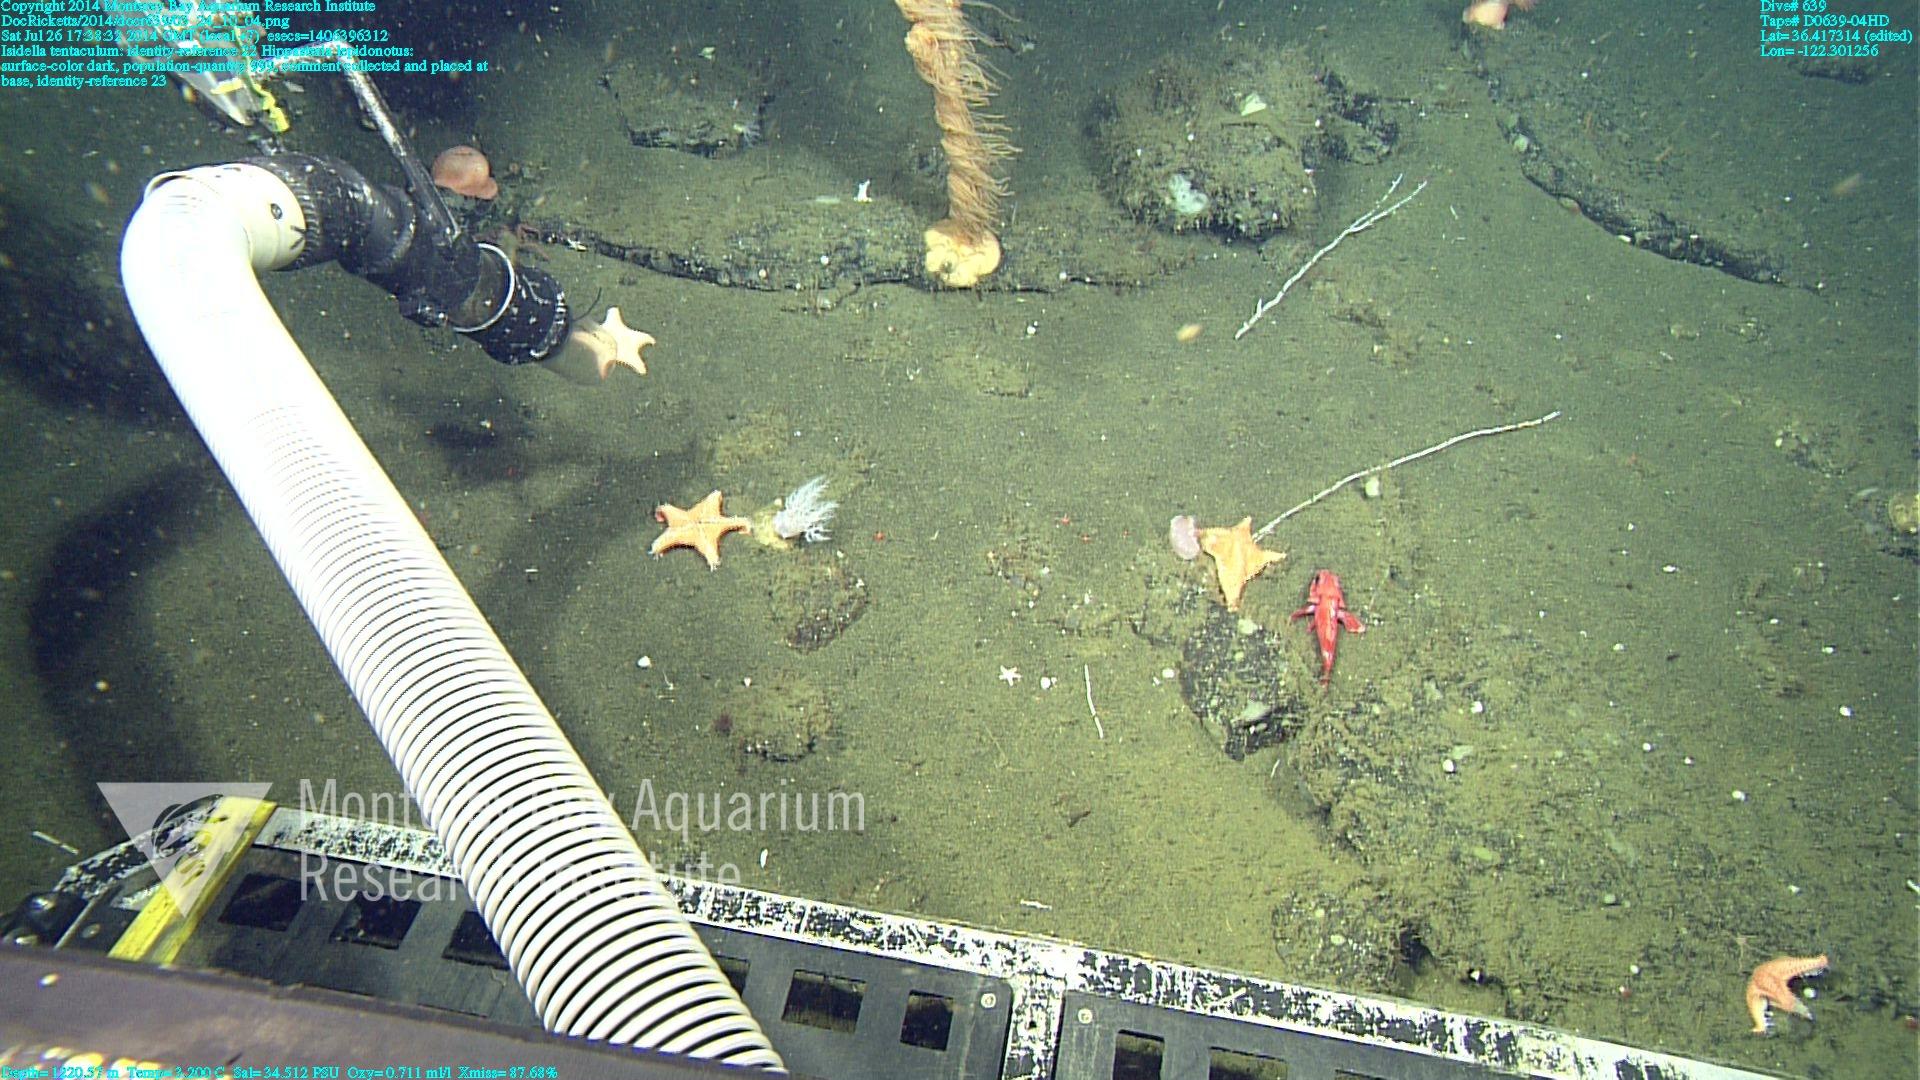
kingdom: Animalia
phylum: Cnidaria
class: Anthozoa
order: Scleralcyonacea
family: Keratoisididae
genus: Isidella
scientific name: Isidella tentaculum
